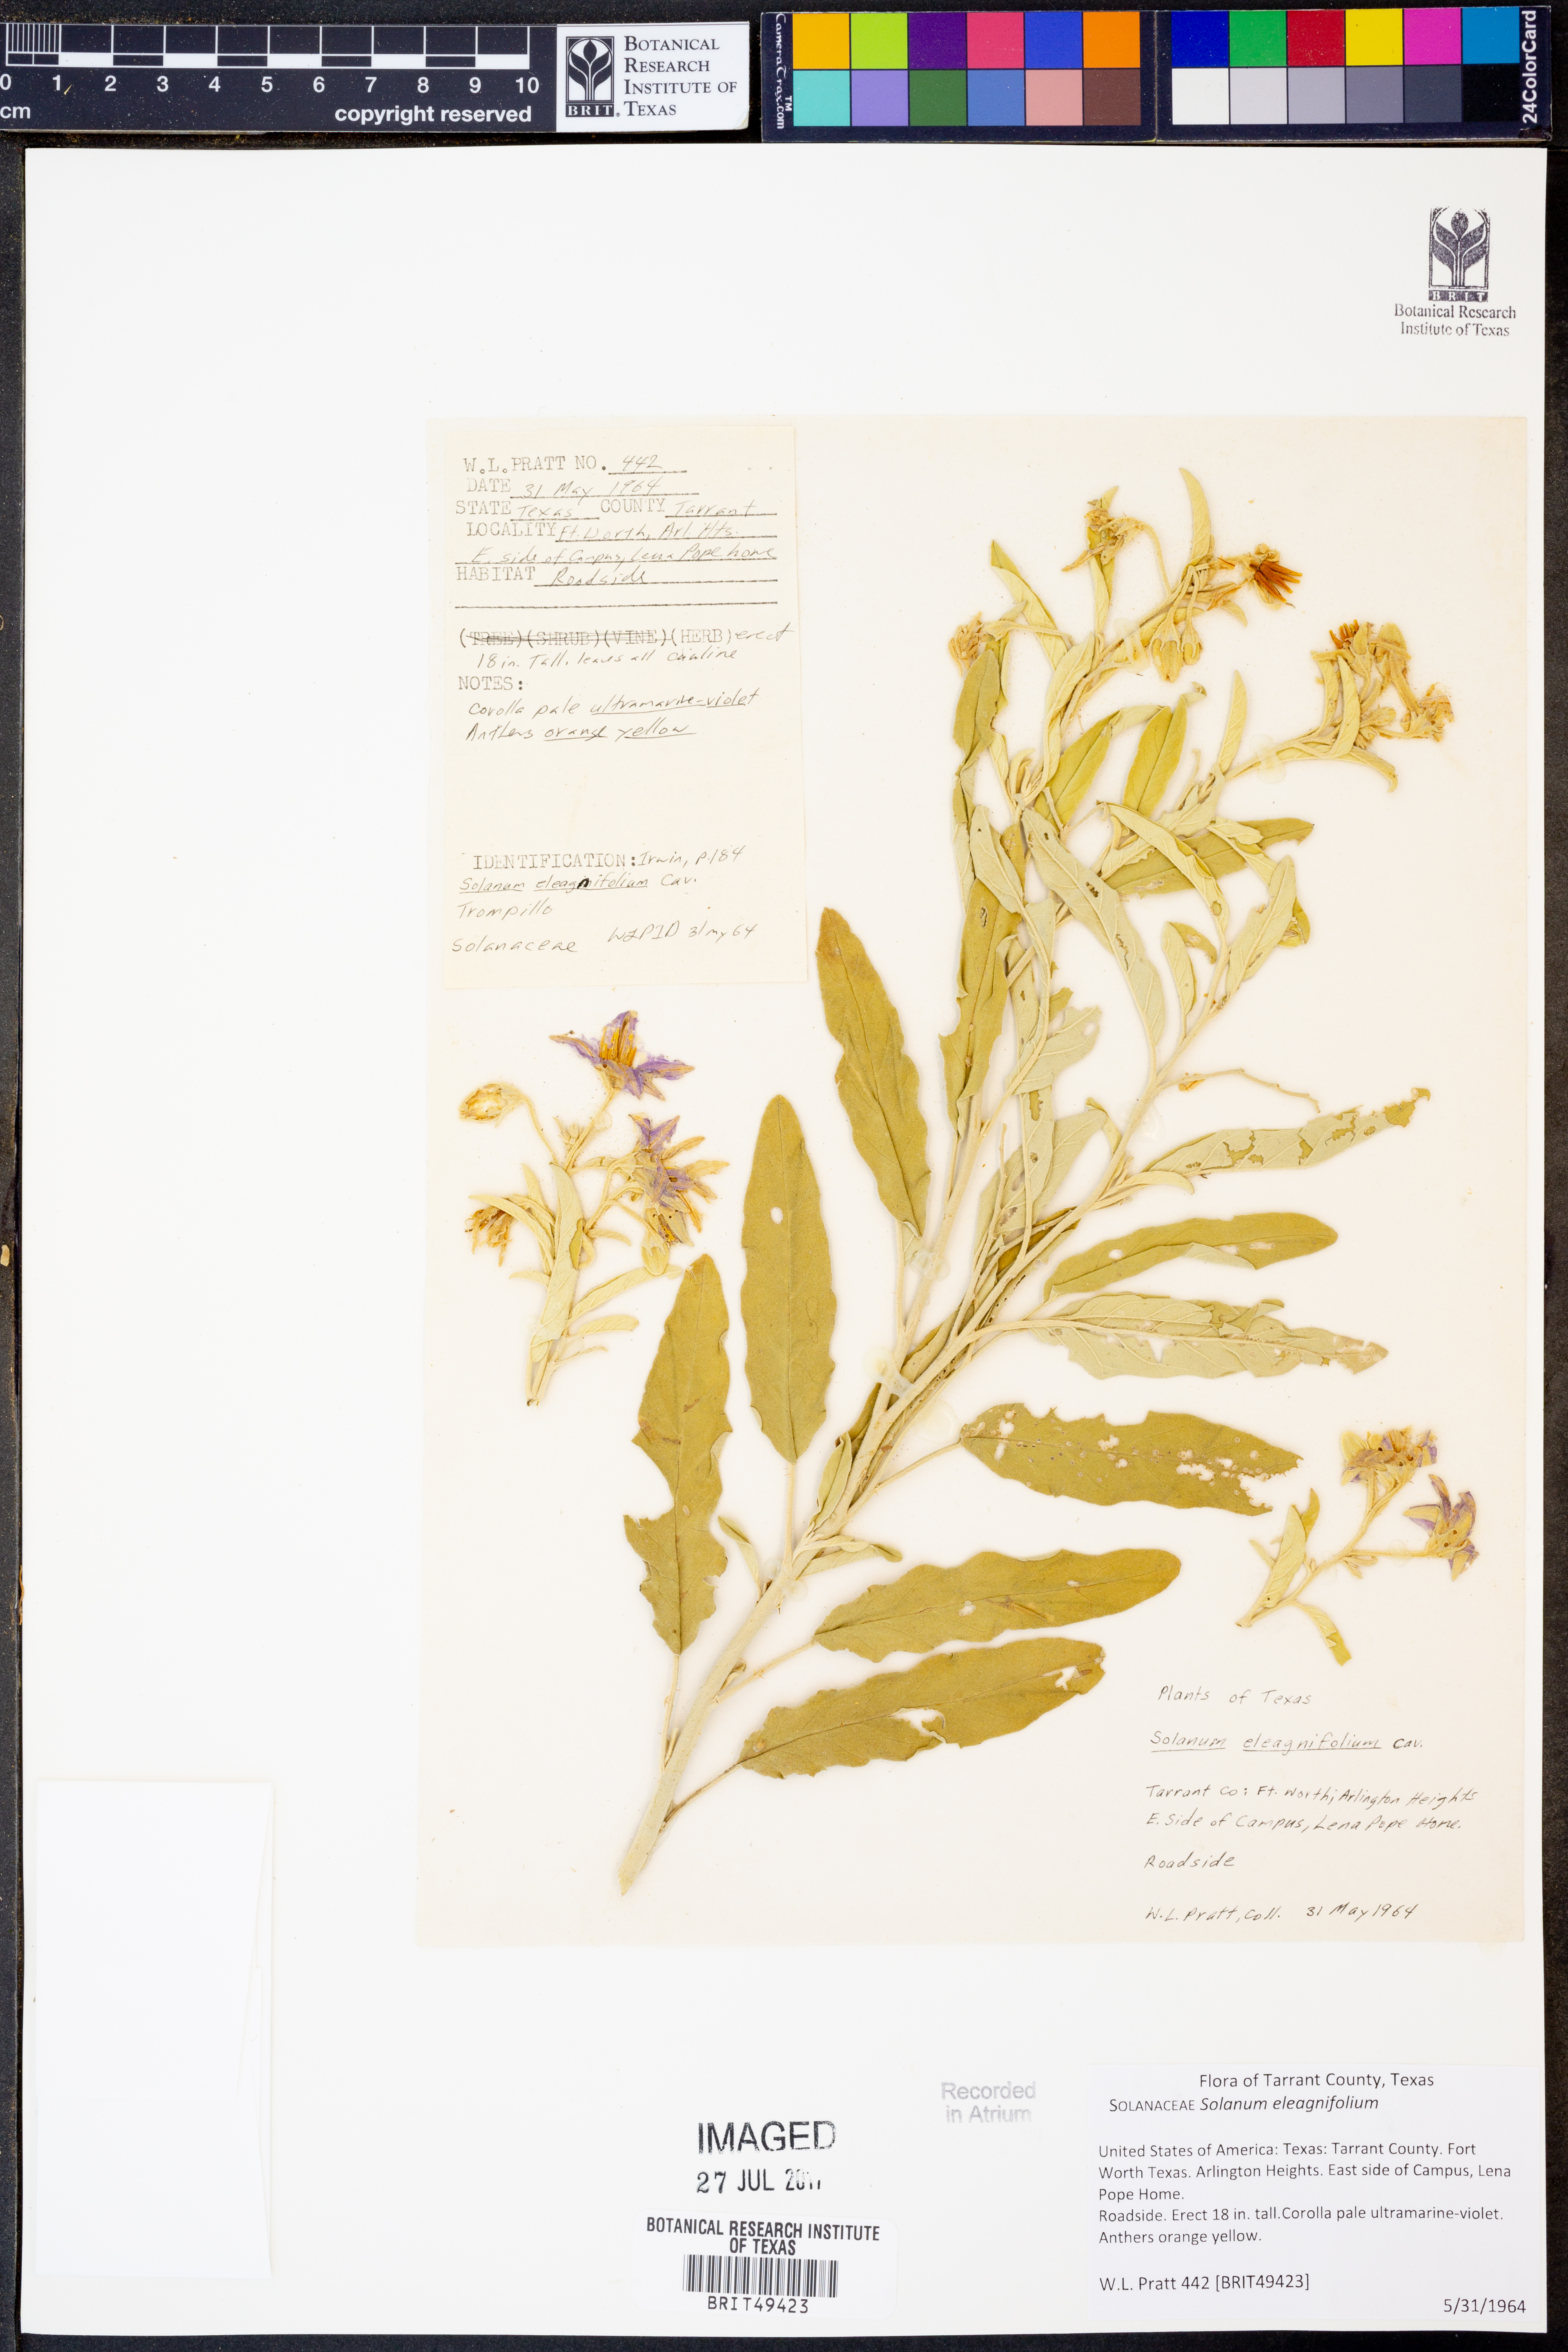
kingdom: Plantae
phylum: Tracheophyta
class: Magnoliopsida
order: Solanales
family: Solanaceae
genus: Solanum
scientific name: Solanum elaeagnifolium
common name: Silverleaf nightshade
